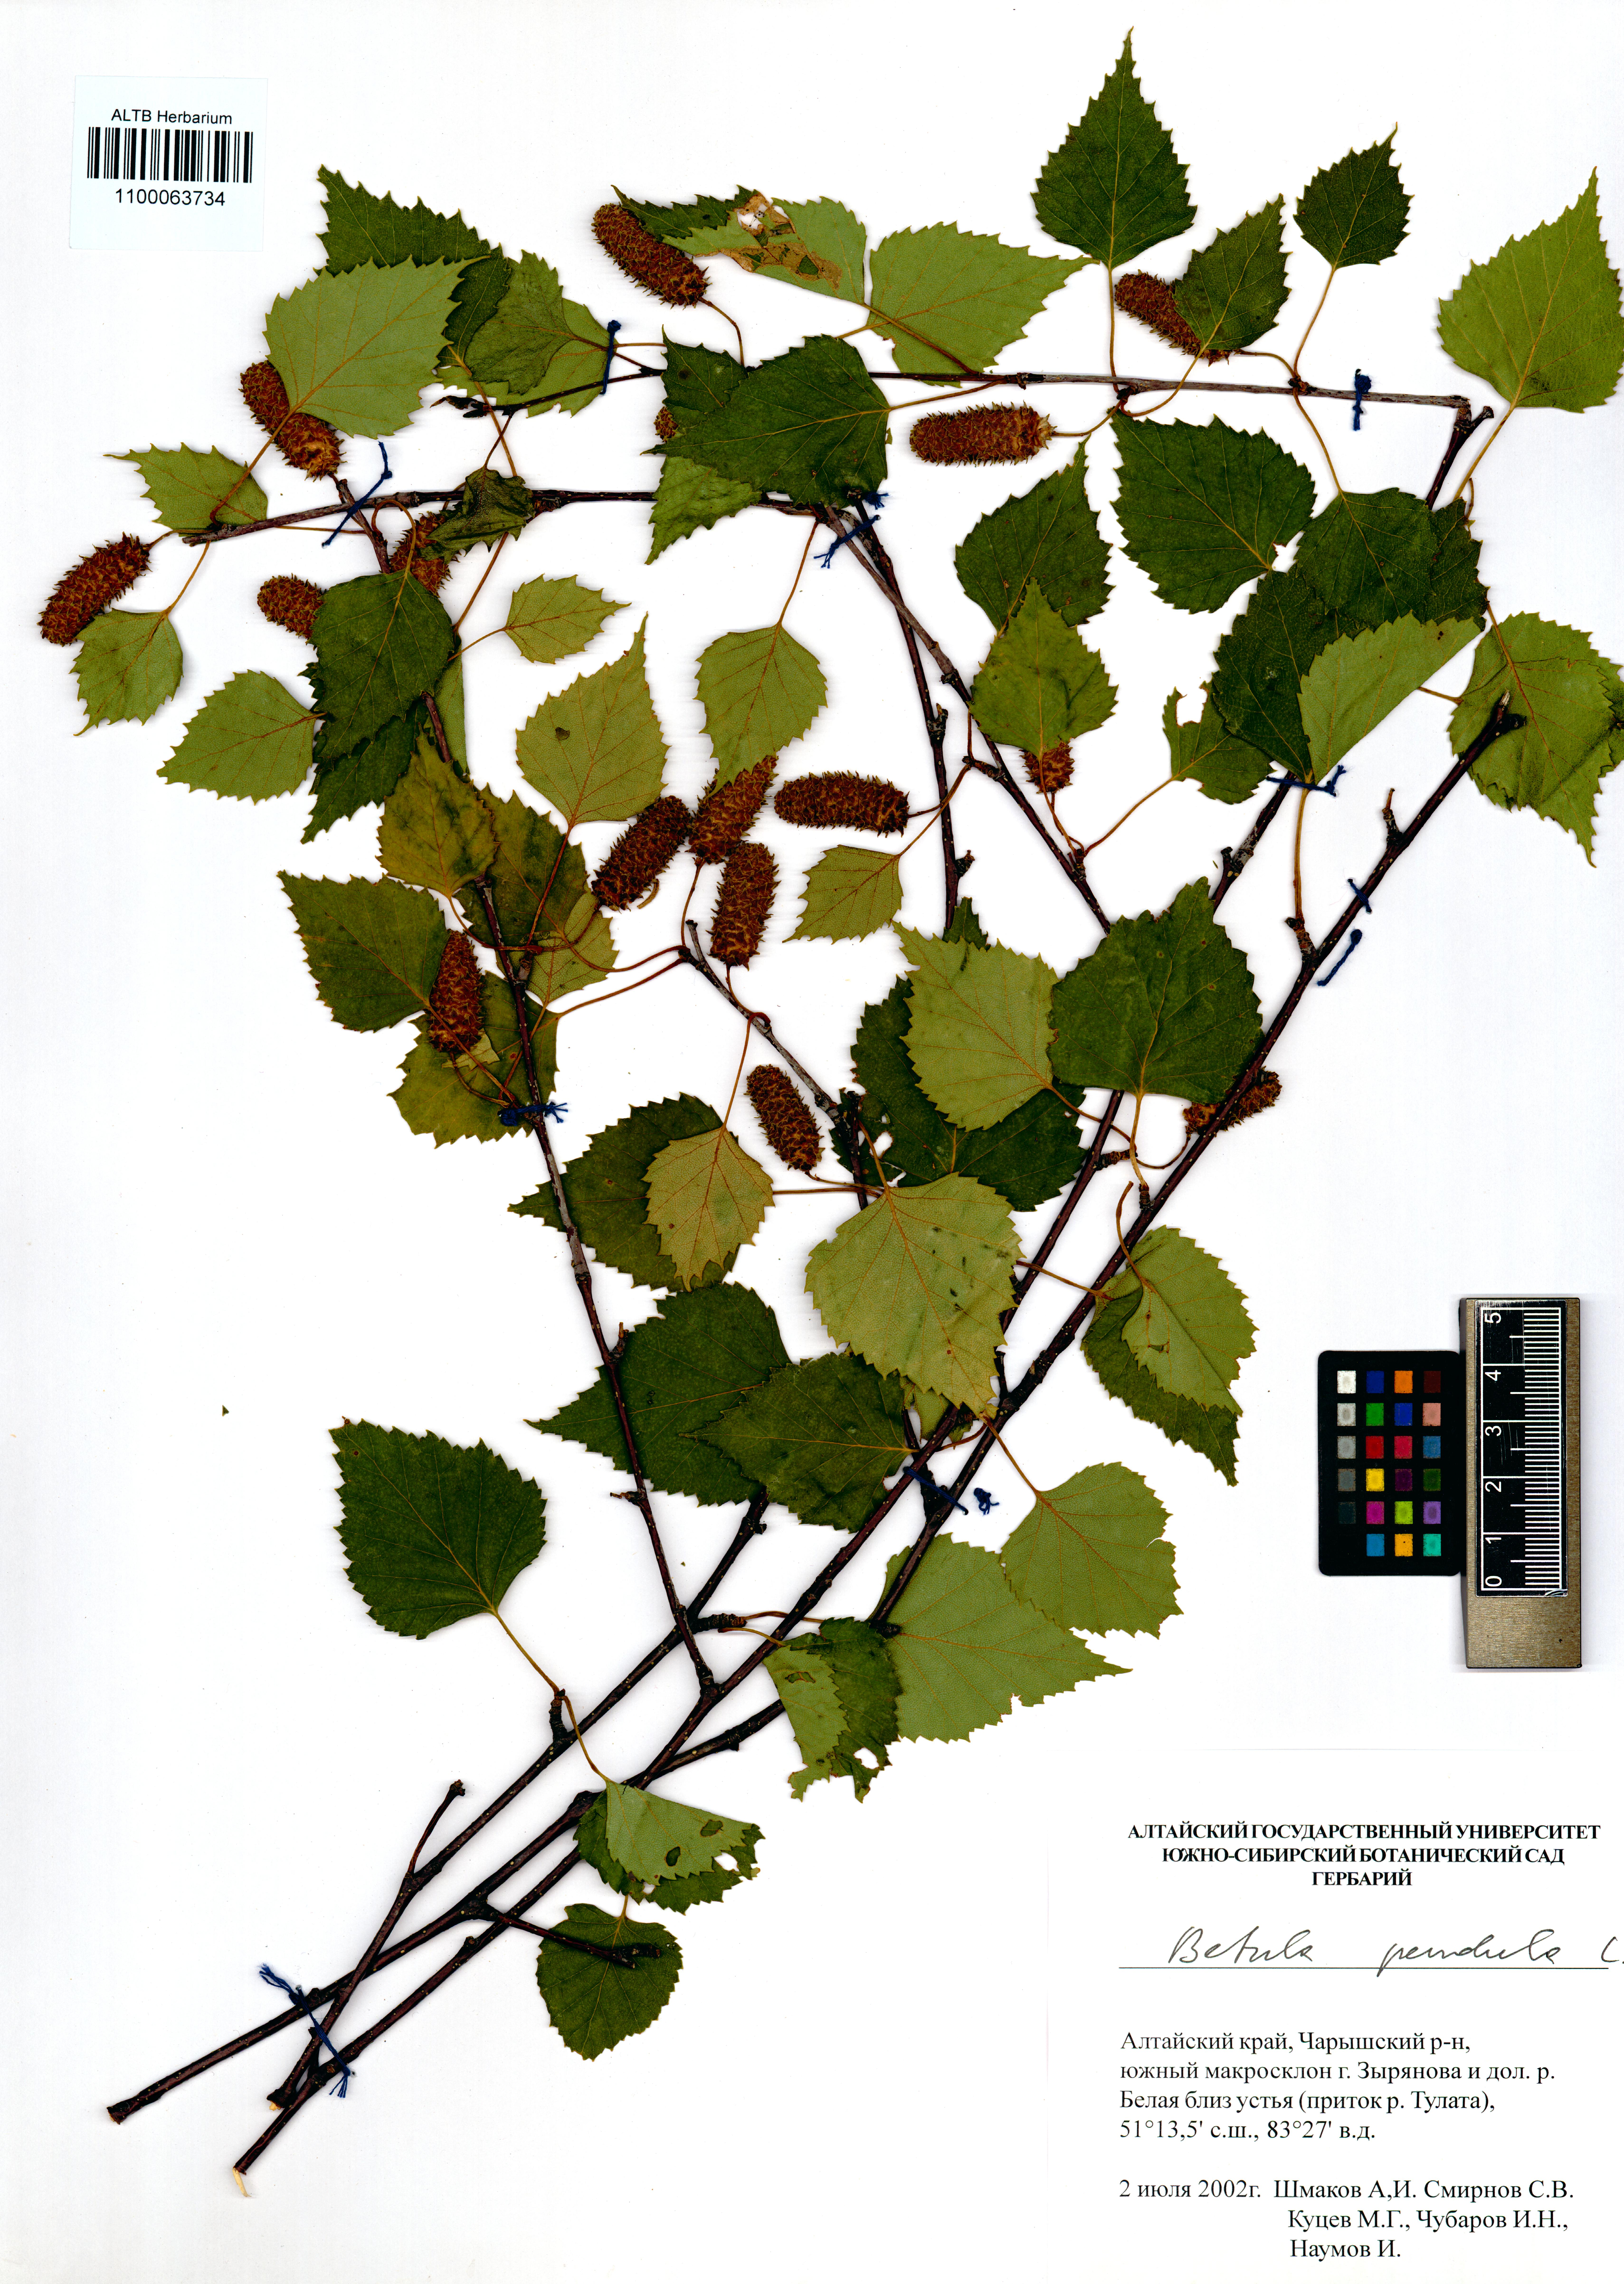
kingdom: Plantae
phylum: Tracheophyta
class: Magnoliopsida
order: Fagales
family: Betulaceae
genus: Betula
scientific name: Betula pendula
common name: Silver birch
